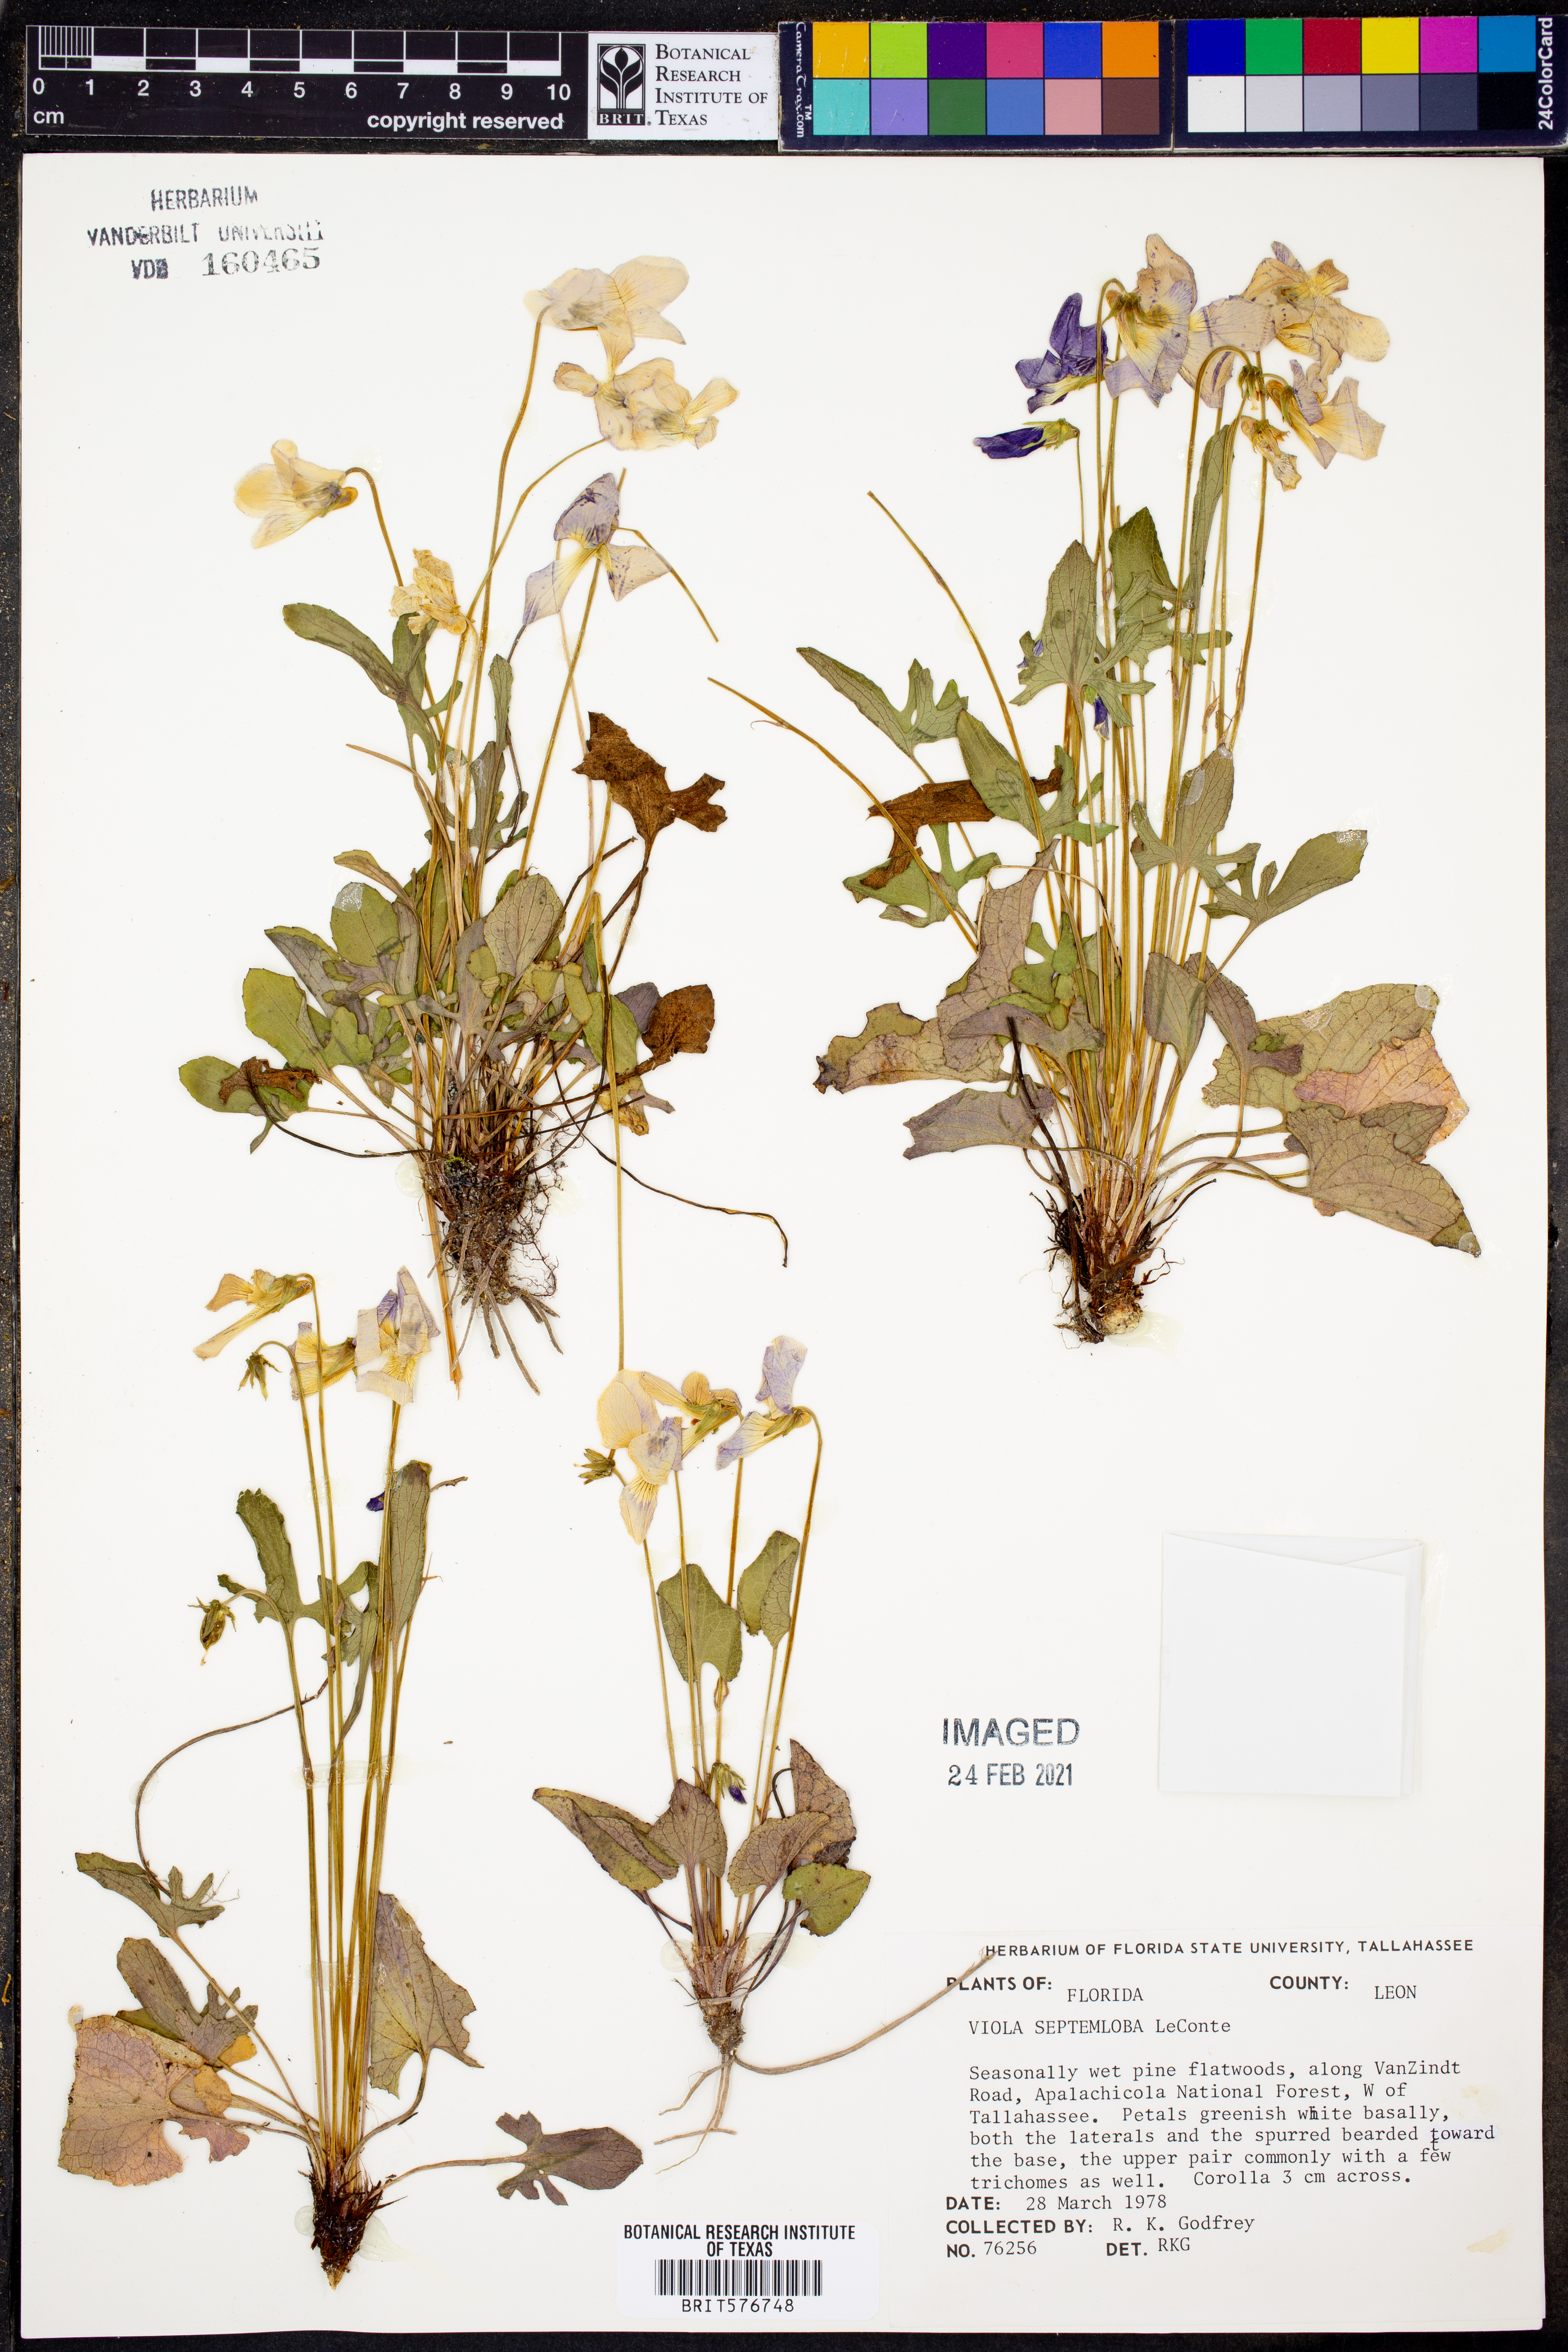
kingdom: Plantae
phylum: Tracheophyta
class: Magnoliopsida
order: Malpighiales
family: Violaceae
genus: Viola
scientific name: Viola septemloba
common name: Southern coast violet
